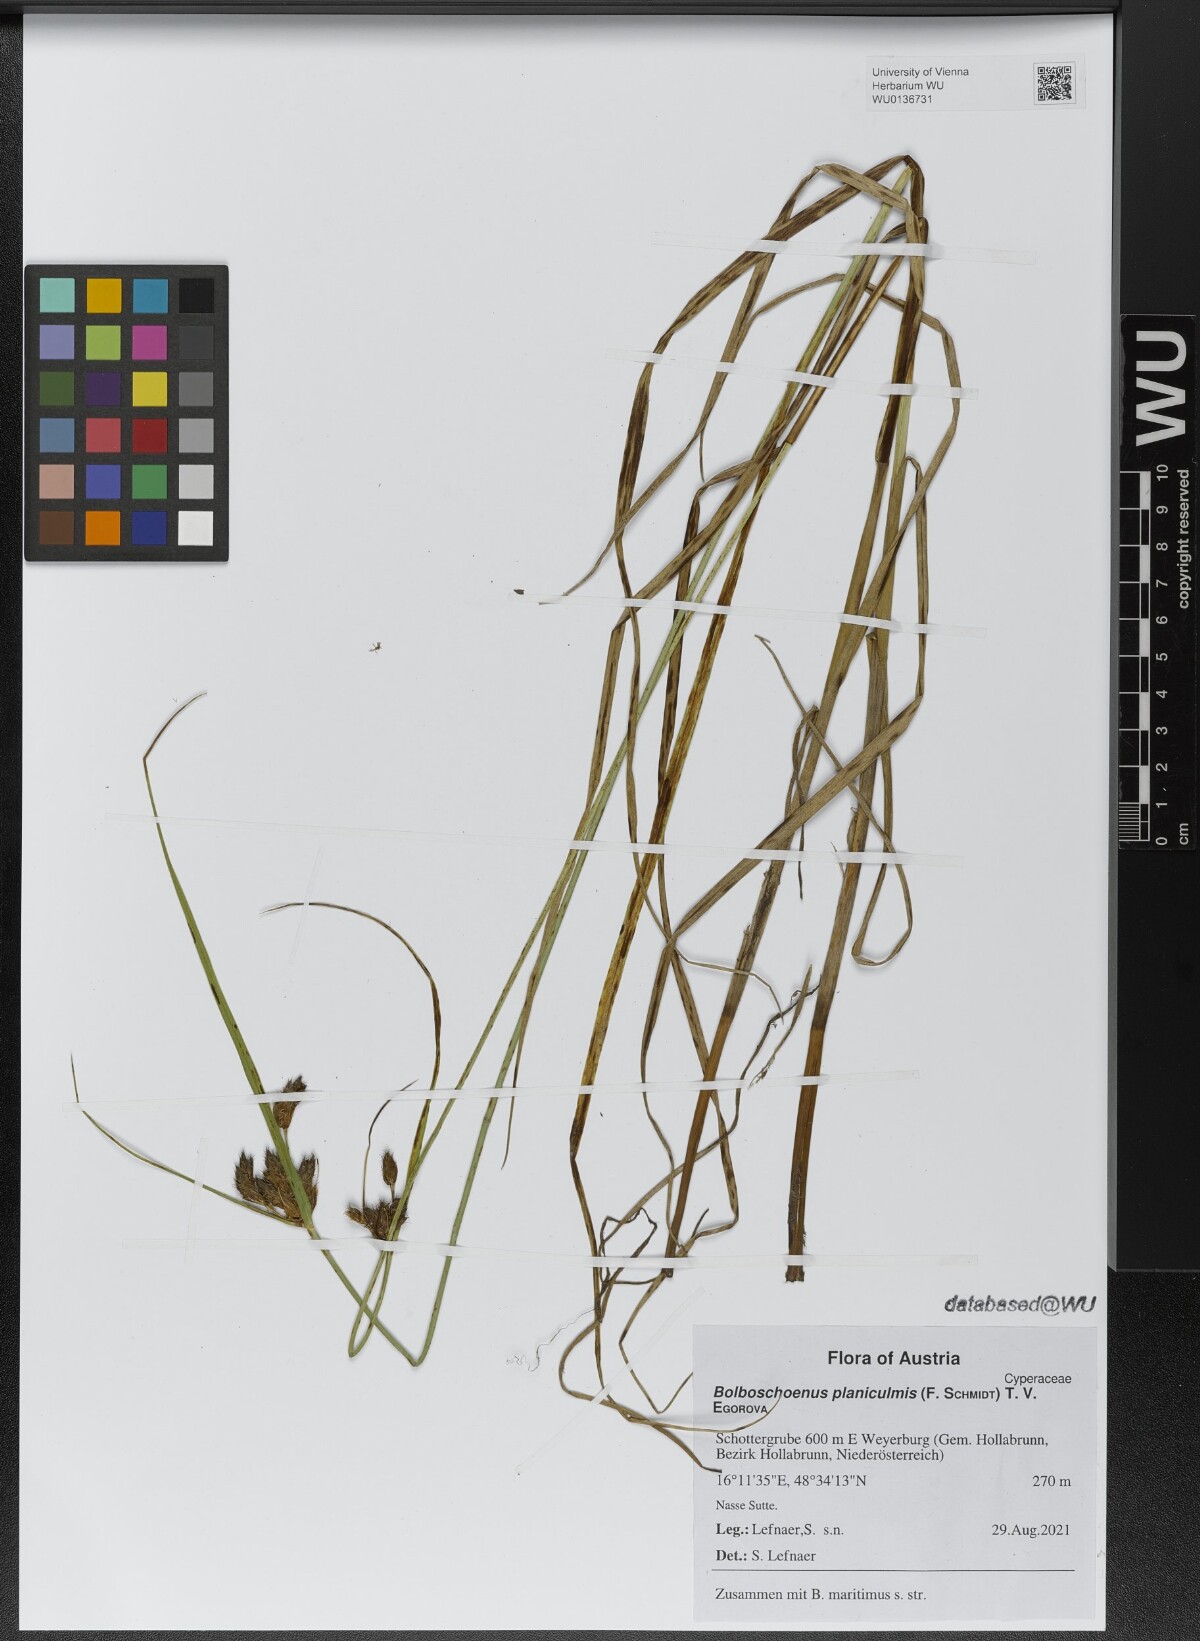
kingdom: Plantae
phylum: Tracheophyta
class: Liliopsida
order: Poales
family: Cyperaceae
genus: Bolboschoenus
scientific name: Bolboschoenus planiculmis
